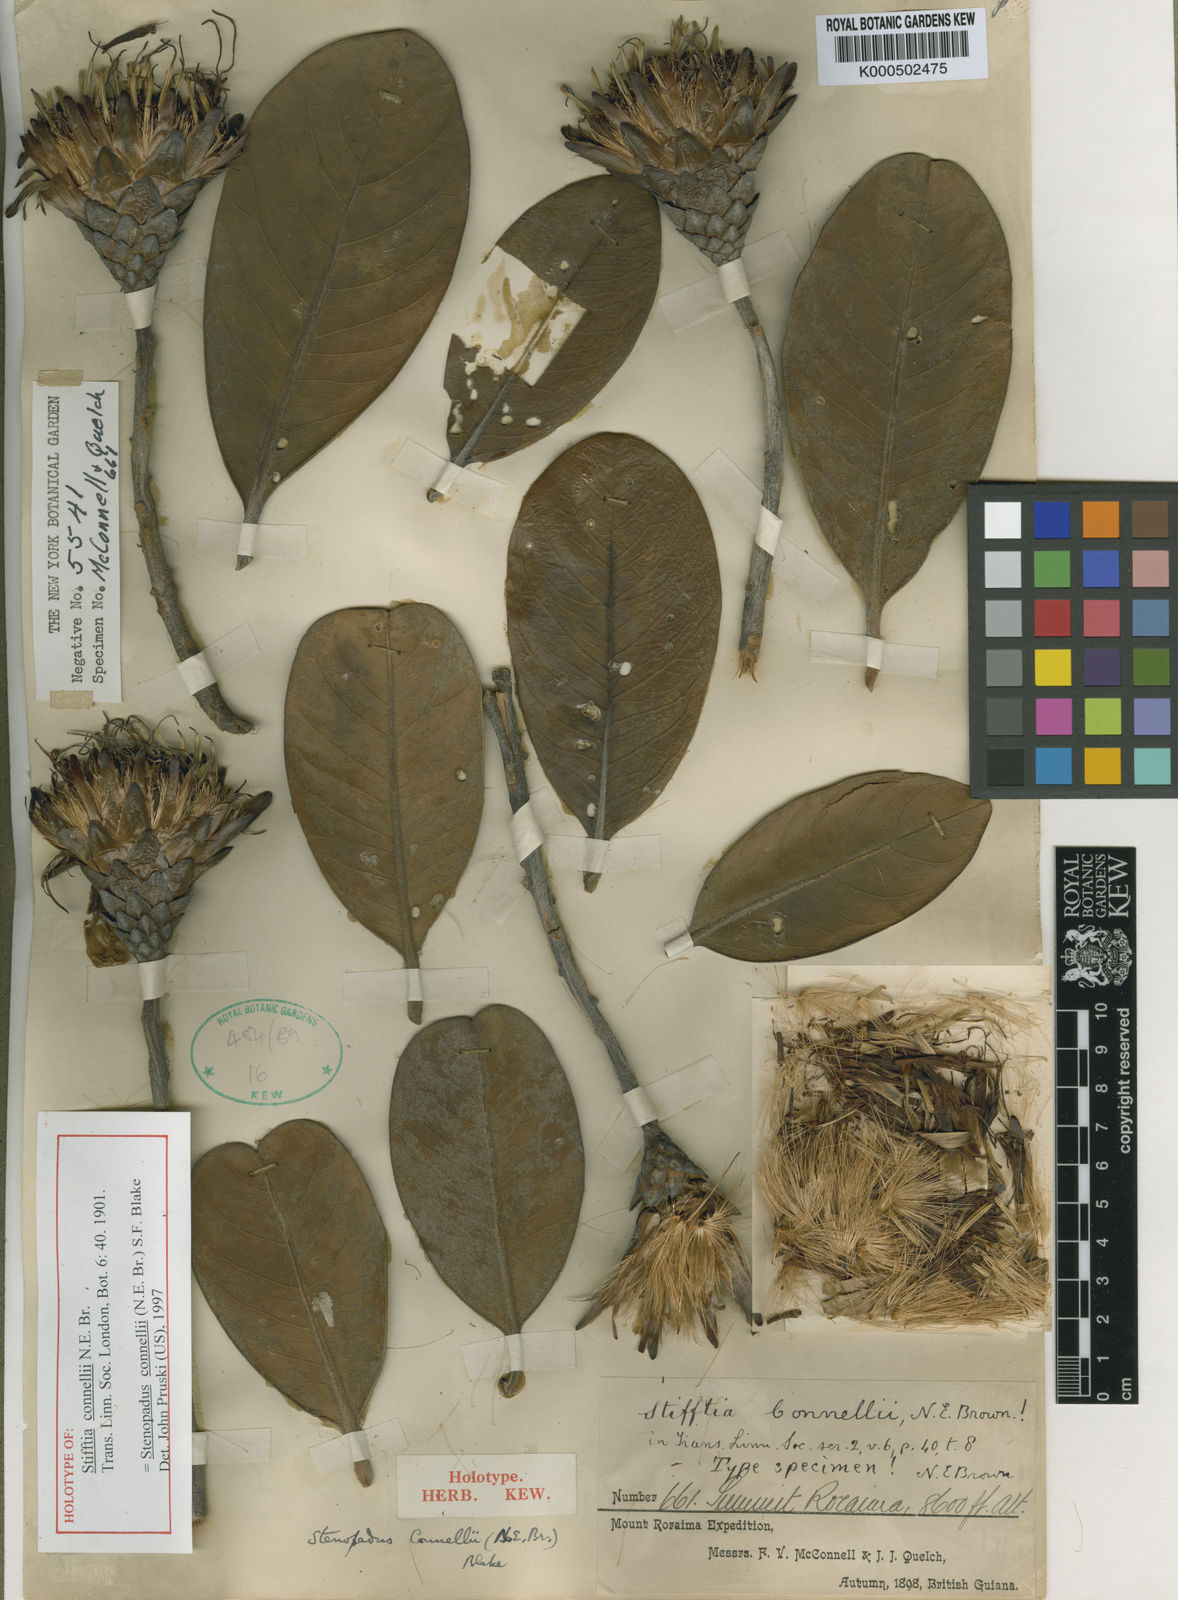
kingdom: Plantae
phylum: Tracheophyta
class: Magnoliopsida
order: Asterales
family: Asteraceae
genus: Stenopadus
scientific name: Stenopadus connellii
